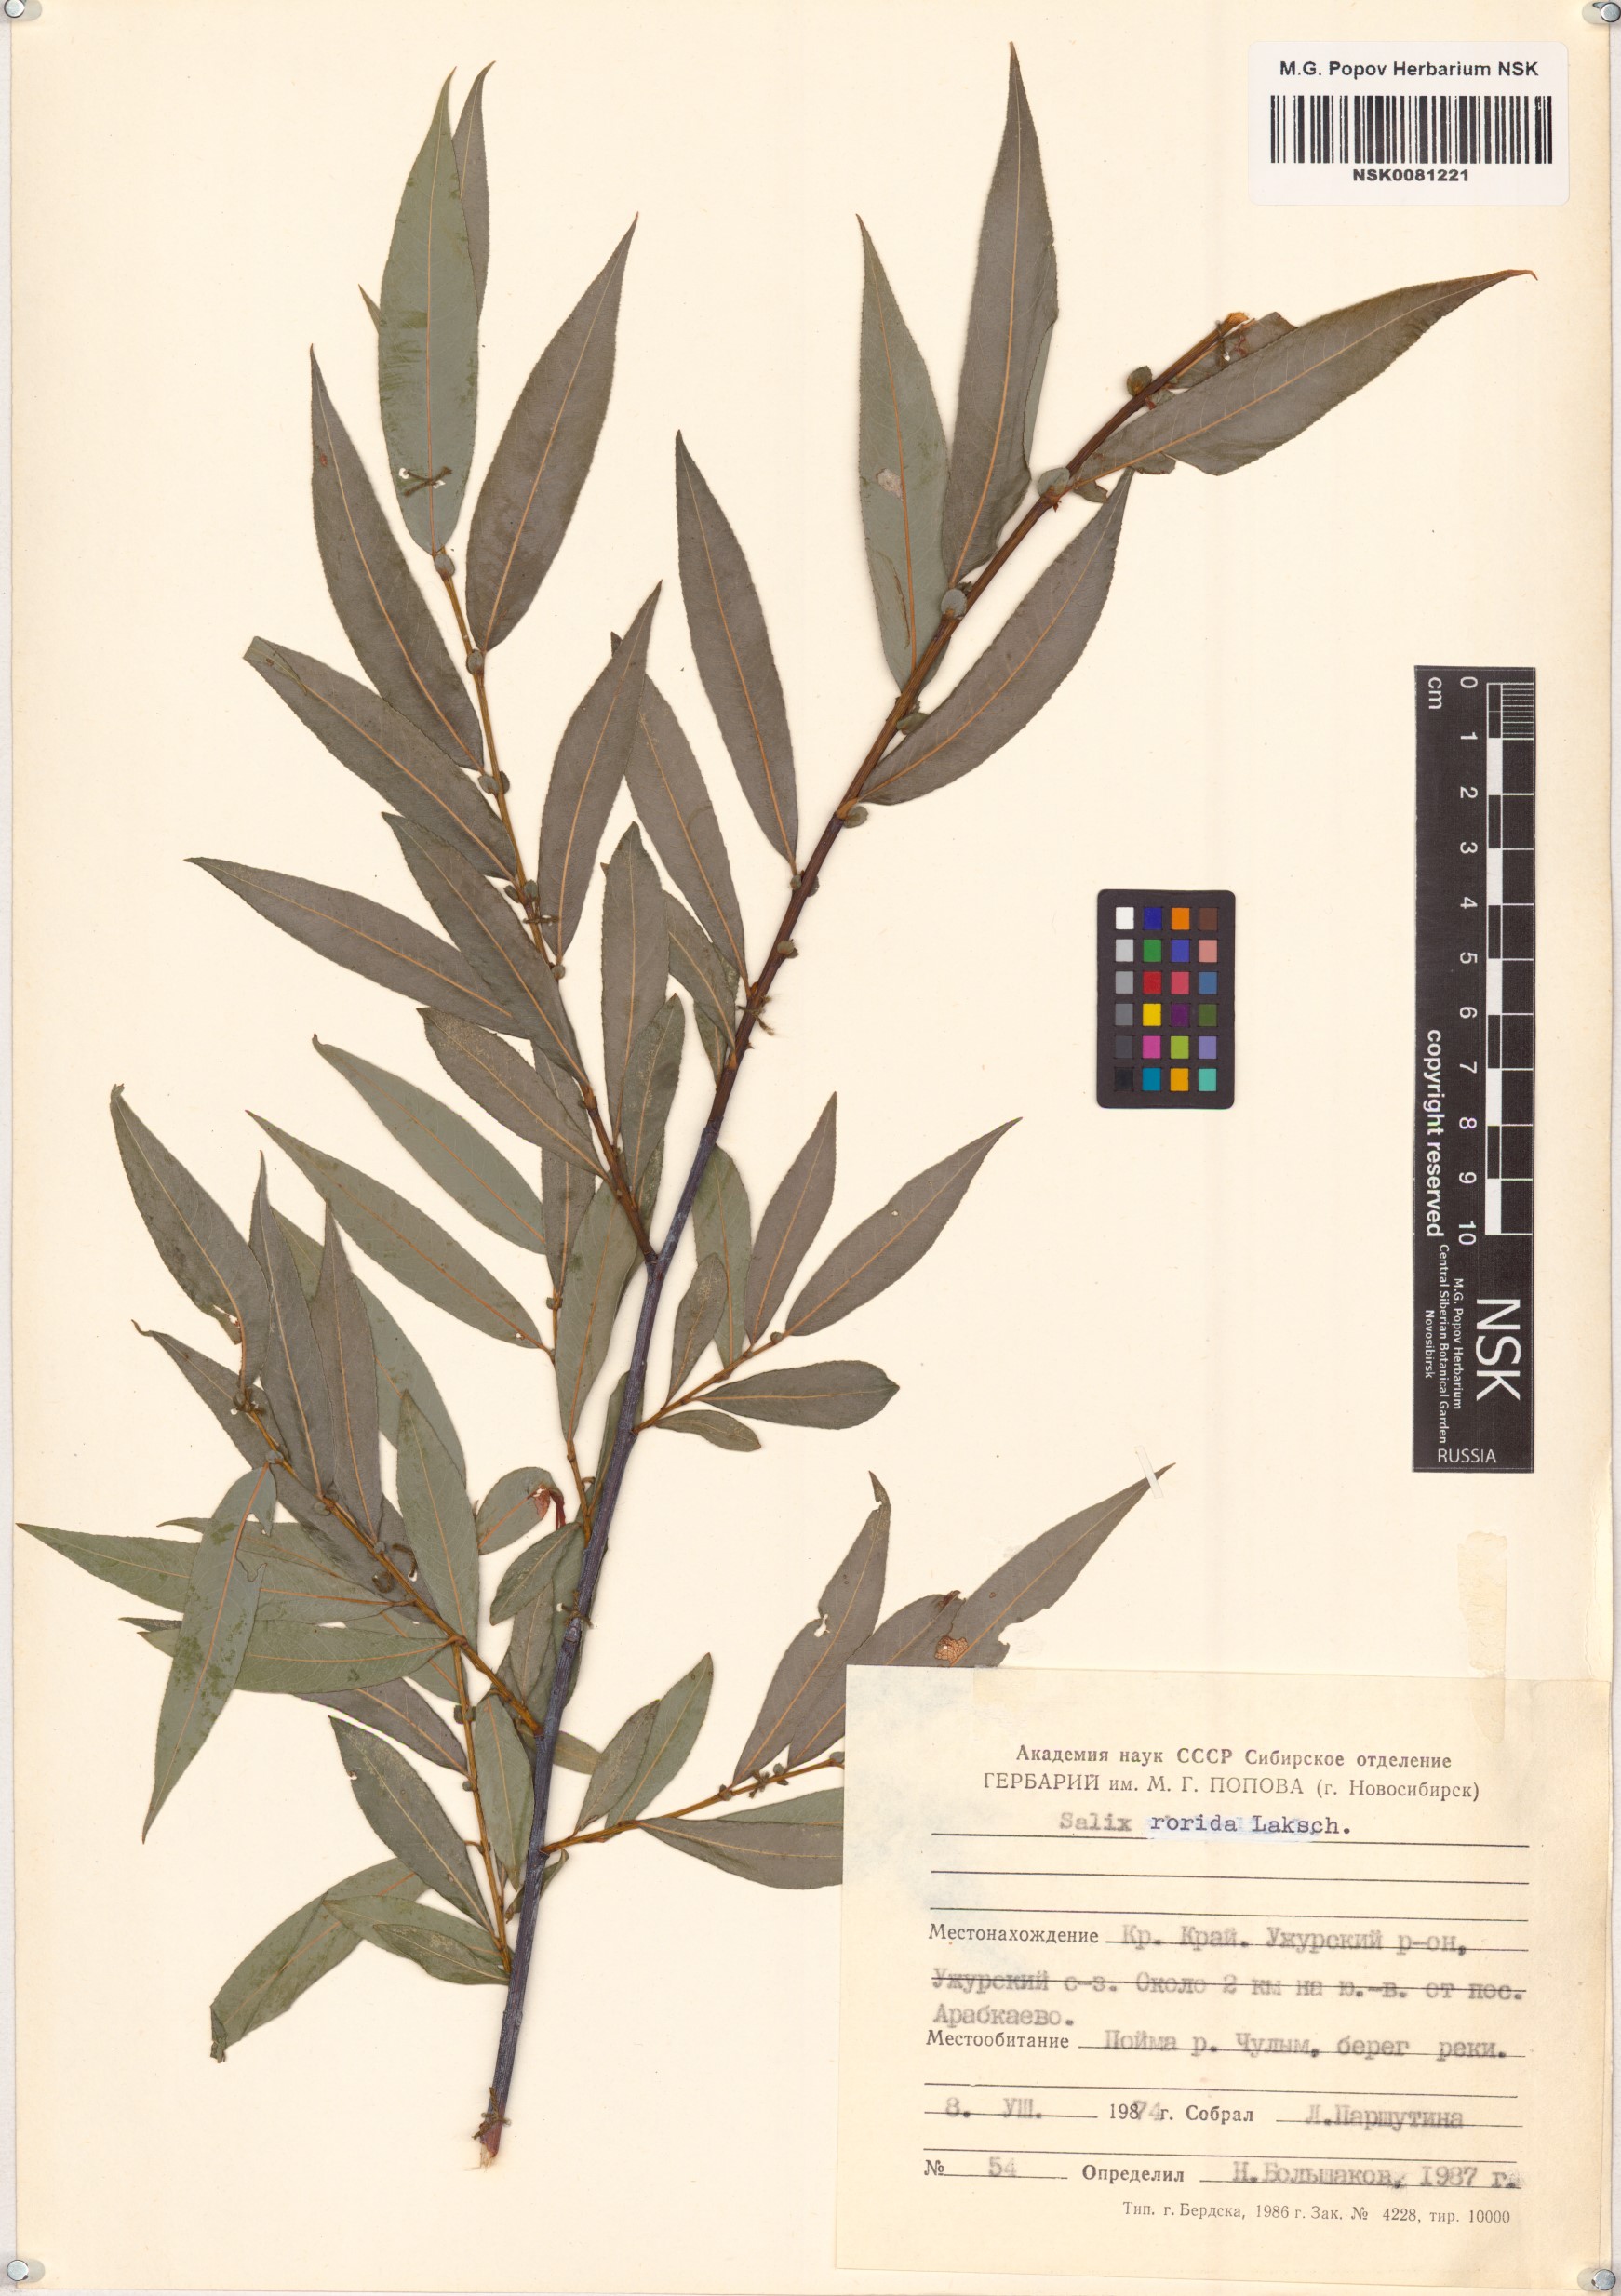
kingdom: Plantae
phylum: Tracheophyta
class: Magnoliopsida
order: Malpighiales
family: Salicaceae
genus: Salix
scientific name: Salix rorida
